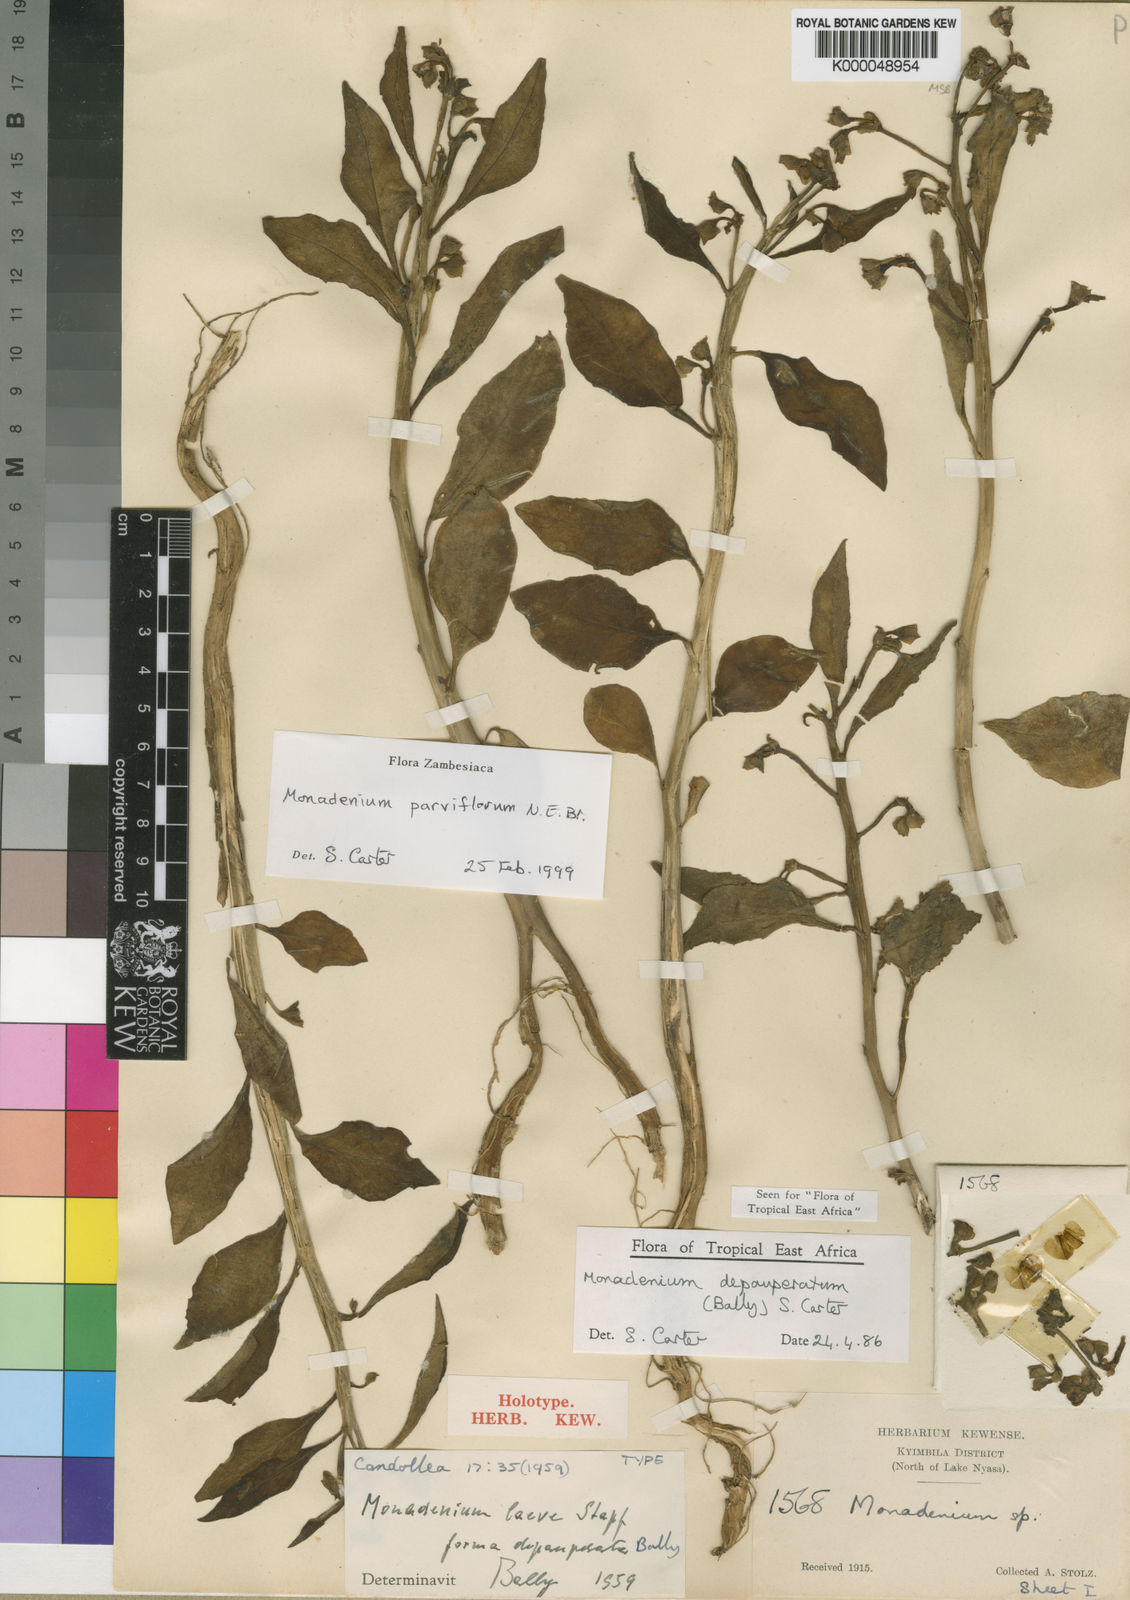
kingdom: Plantae
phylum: Tracheophyta
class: Magnoliopsida
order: Malpighiales
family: Euphorbiaceae
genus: Euphorbia
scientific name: Euphorbia neoparviflora
